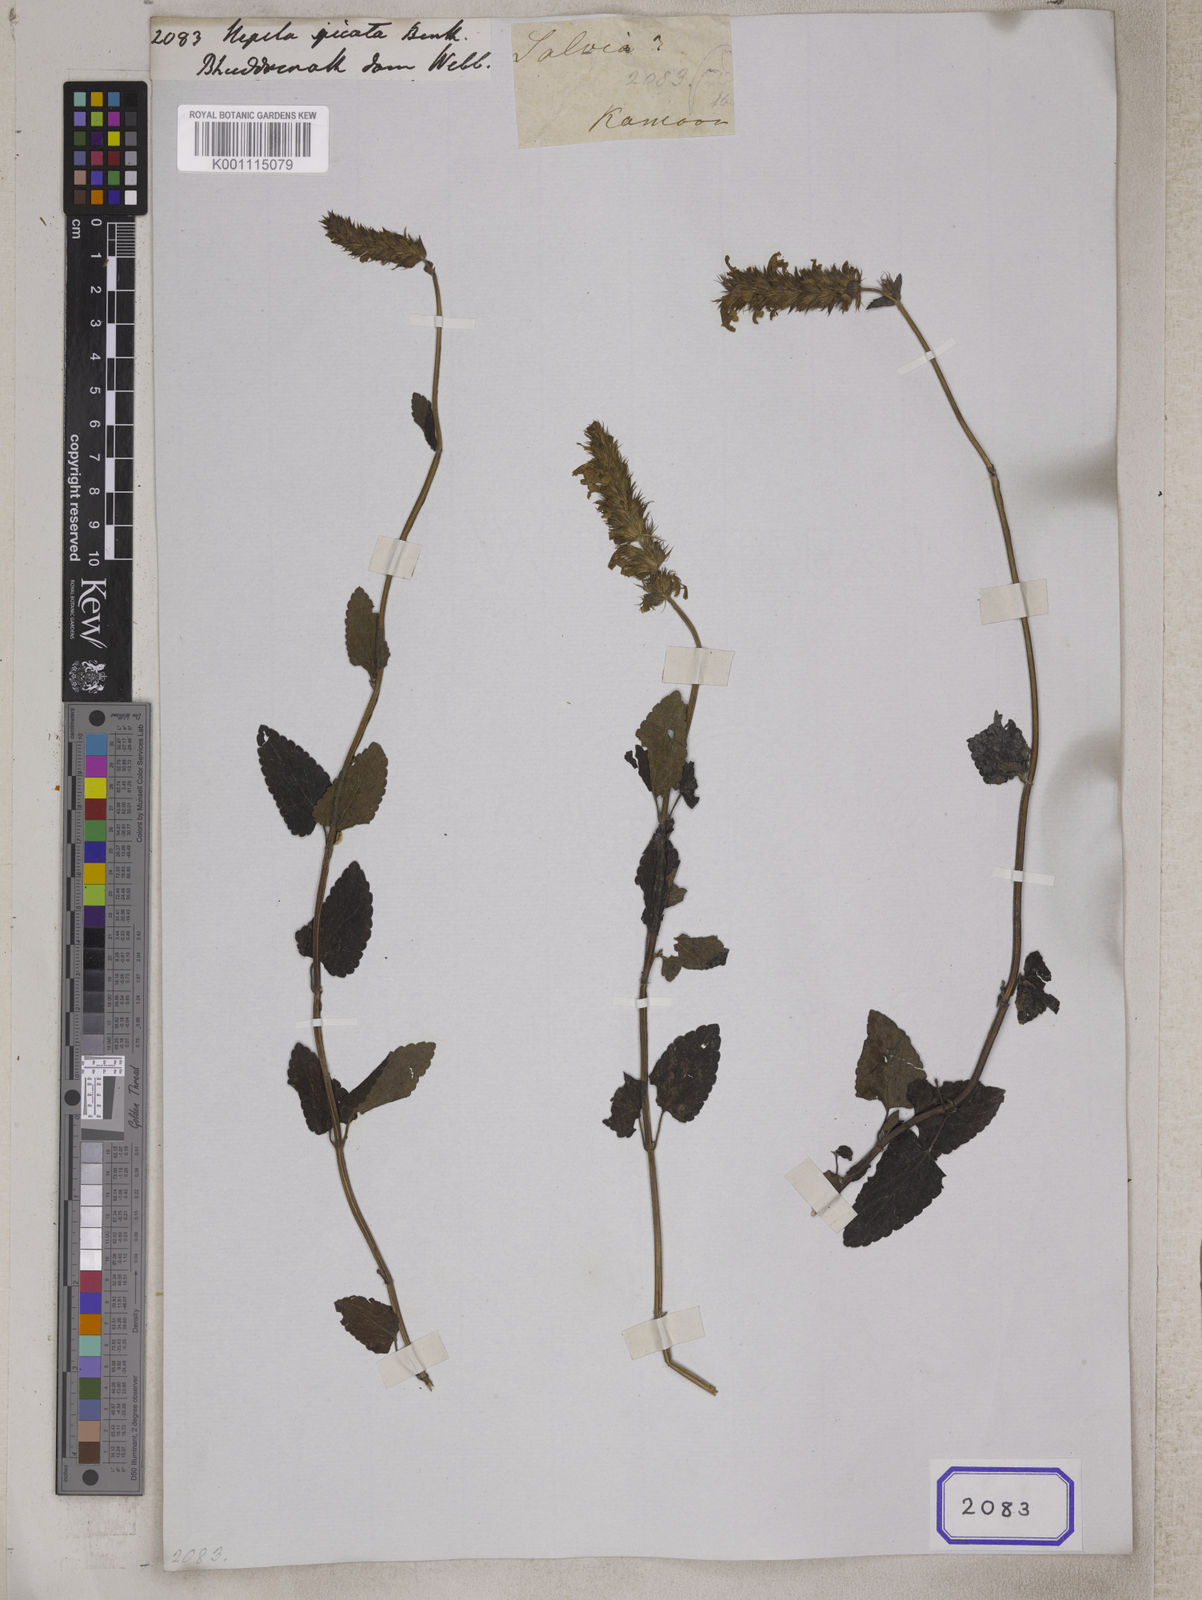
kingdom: Plantae
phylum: Tracheophyta
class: Magnoliopsida
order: Lamiales
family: Lamiaceae
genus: Nepeta
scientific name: Nepeta laevigata
